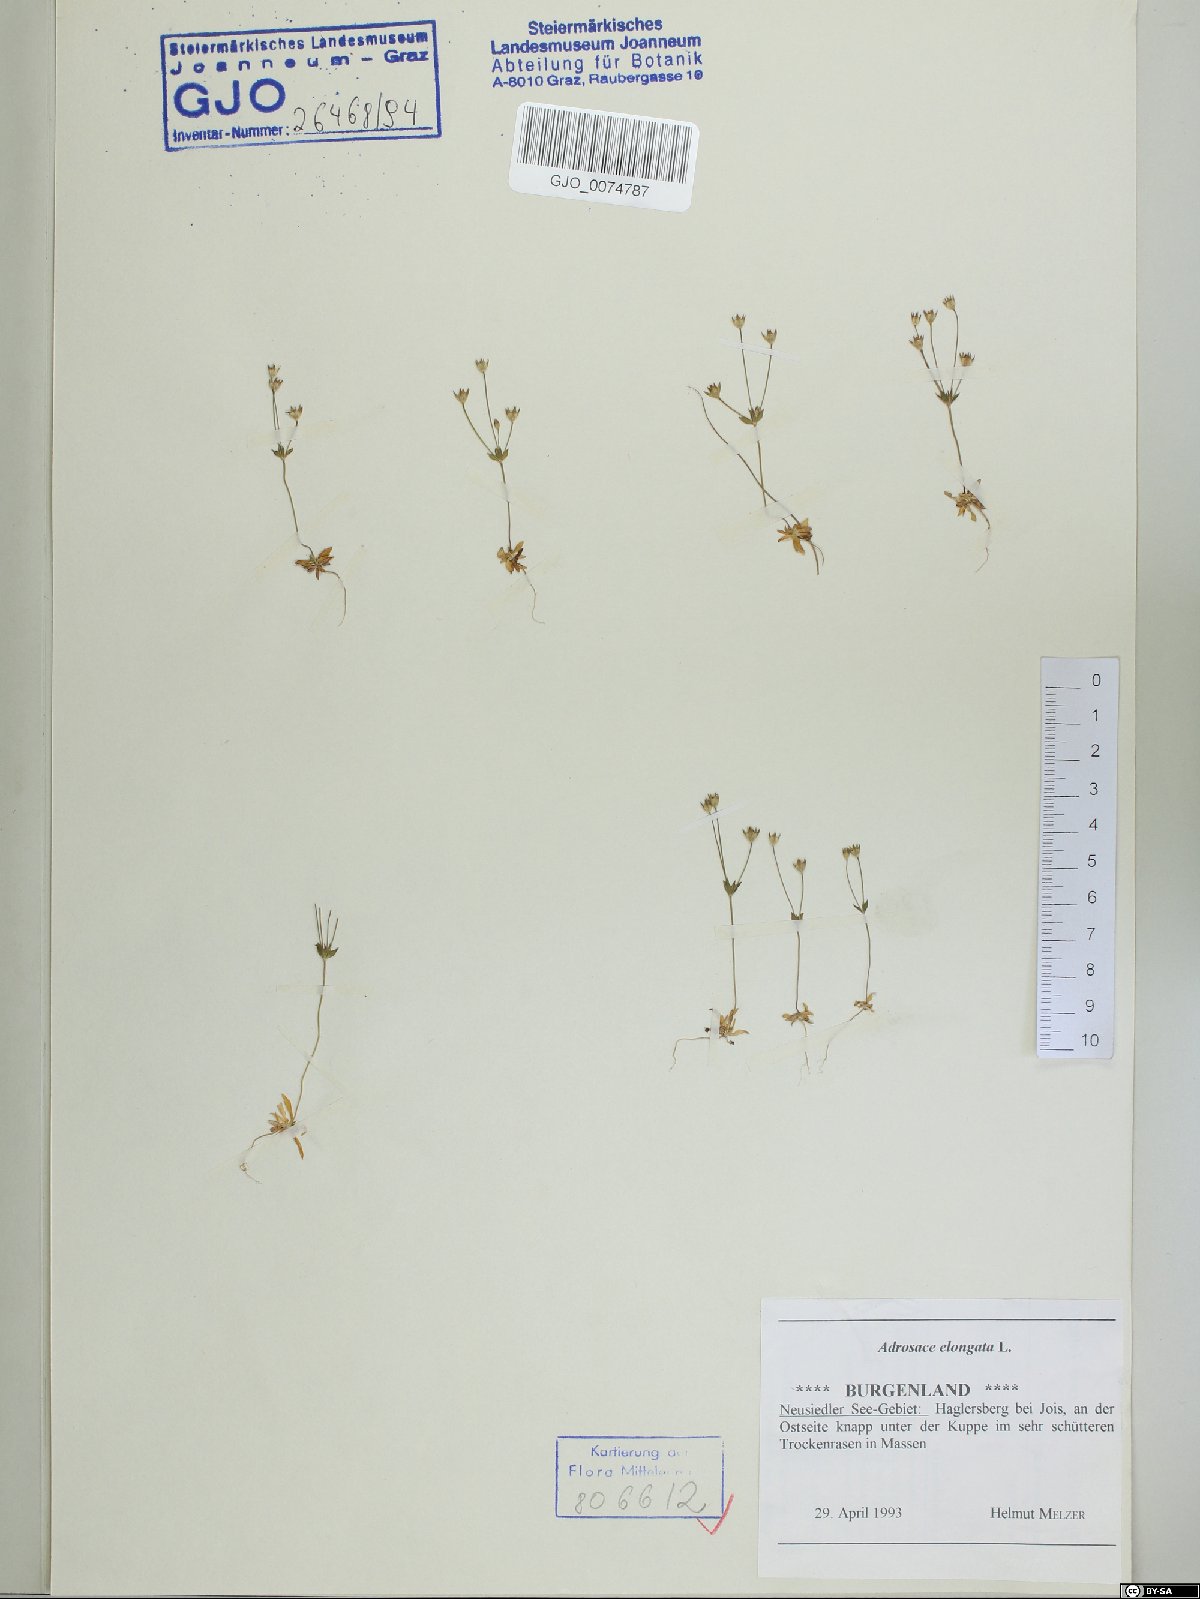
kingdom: Plantae
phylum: Tracheophyta
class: Magnoliopsida
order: Ericales
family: Primulaceae
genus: Androsace
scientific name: Androsace elongata
